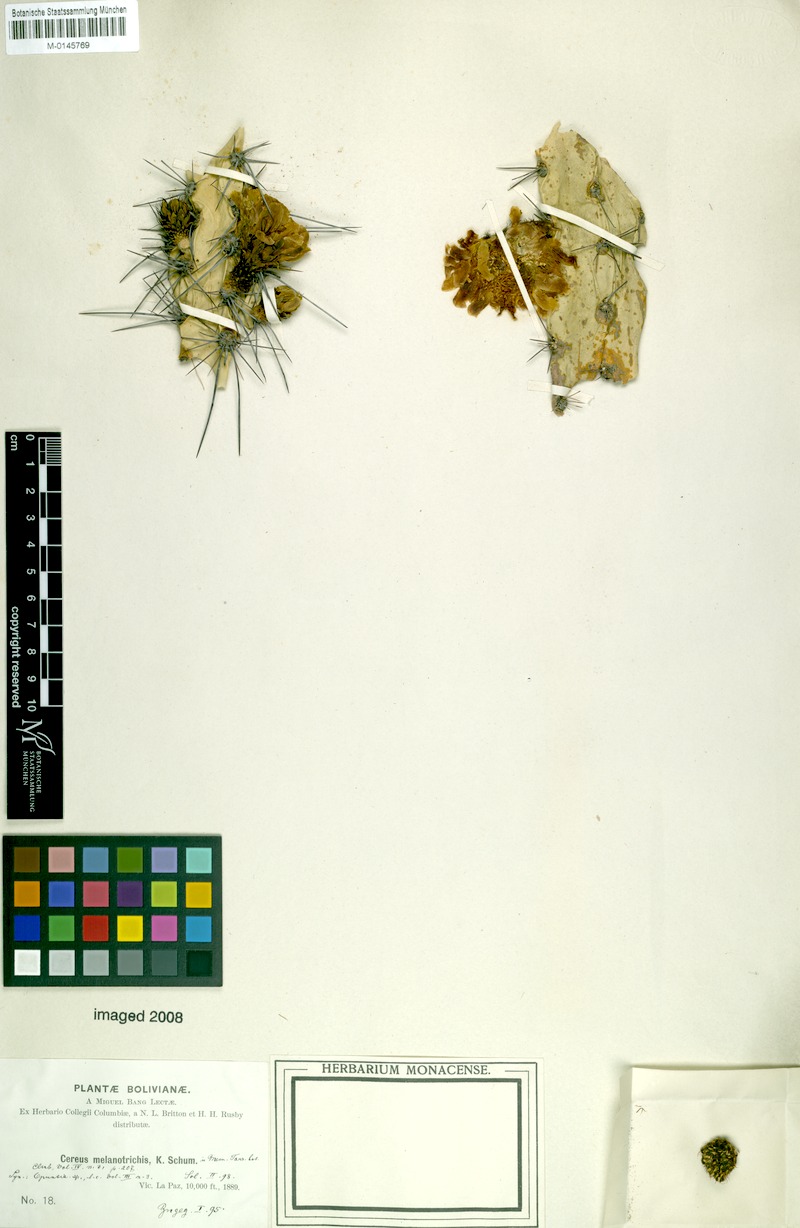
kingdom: Plantae
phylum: Tracheophyta
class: Magnoliopsida
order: Caryophyllales
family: Cactaceae
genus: Corryocactus
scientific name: Corryocactus melanotrichus
